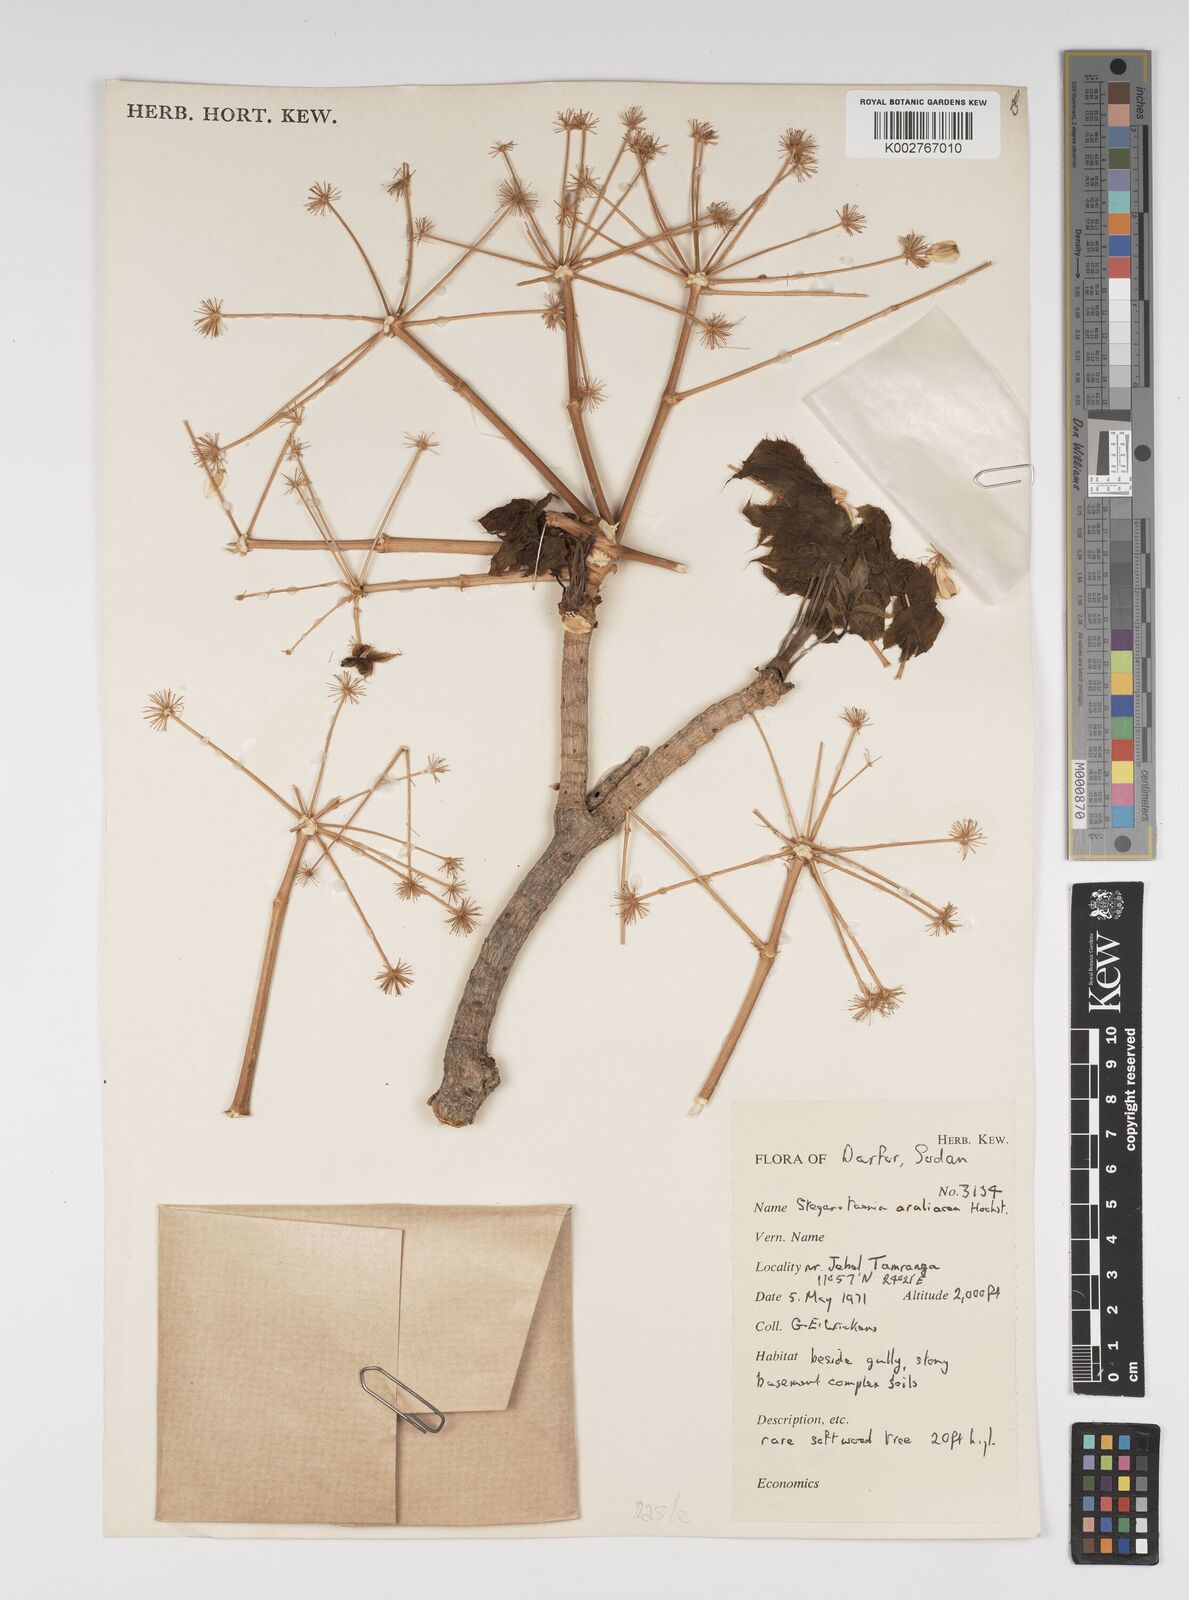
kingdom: Plantae
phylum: Tracheophyta
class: Magnoliopsida
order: Apiales
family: Apiaceae
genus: Steganotaenia
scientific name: Steganotaenia araliacea
